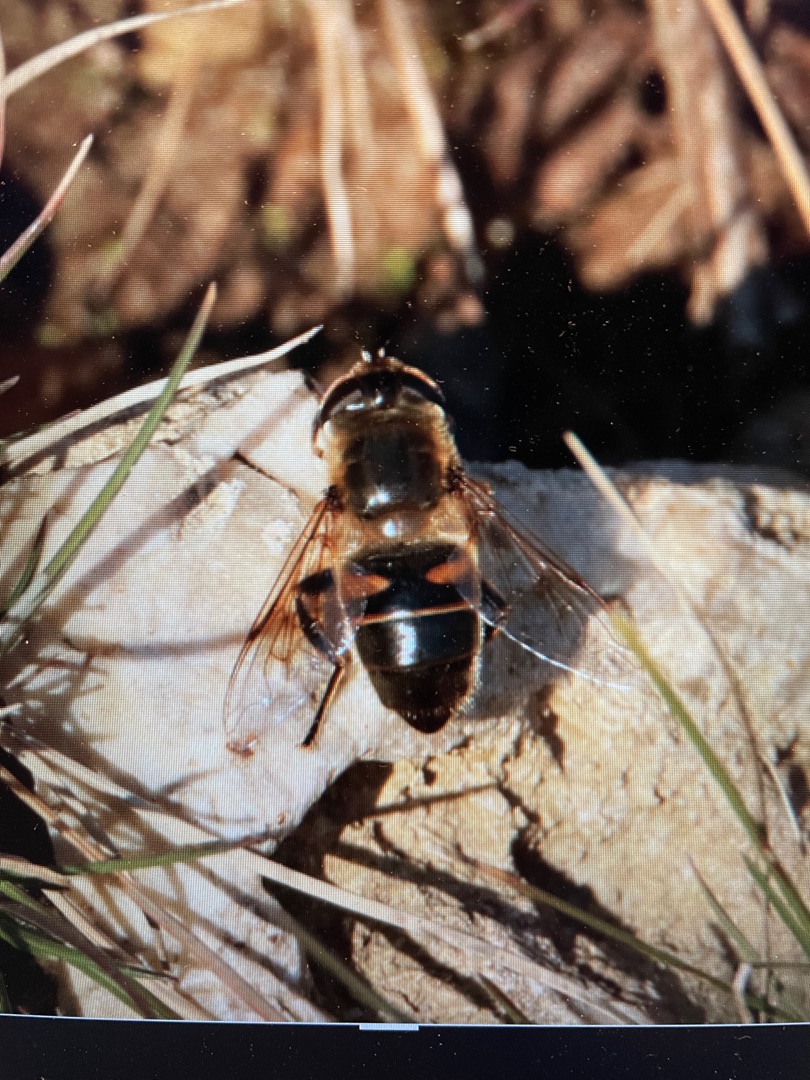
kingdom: Animalia
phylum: Arthropoda
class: Insecta
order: Diptera
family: Syrphidae
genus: Eristalis
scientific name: Eristalis tenax
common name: Droneflue
